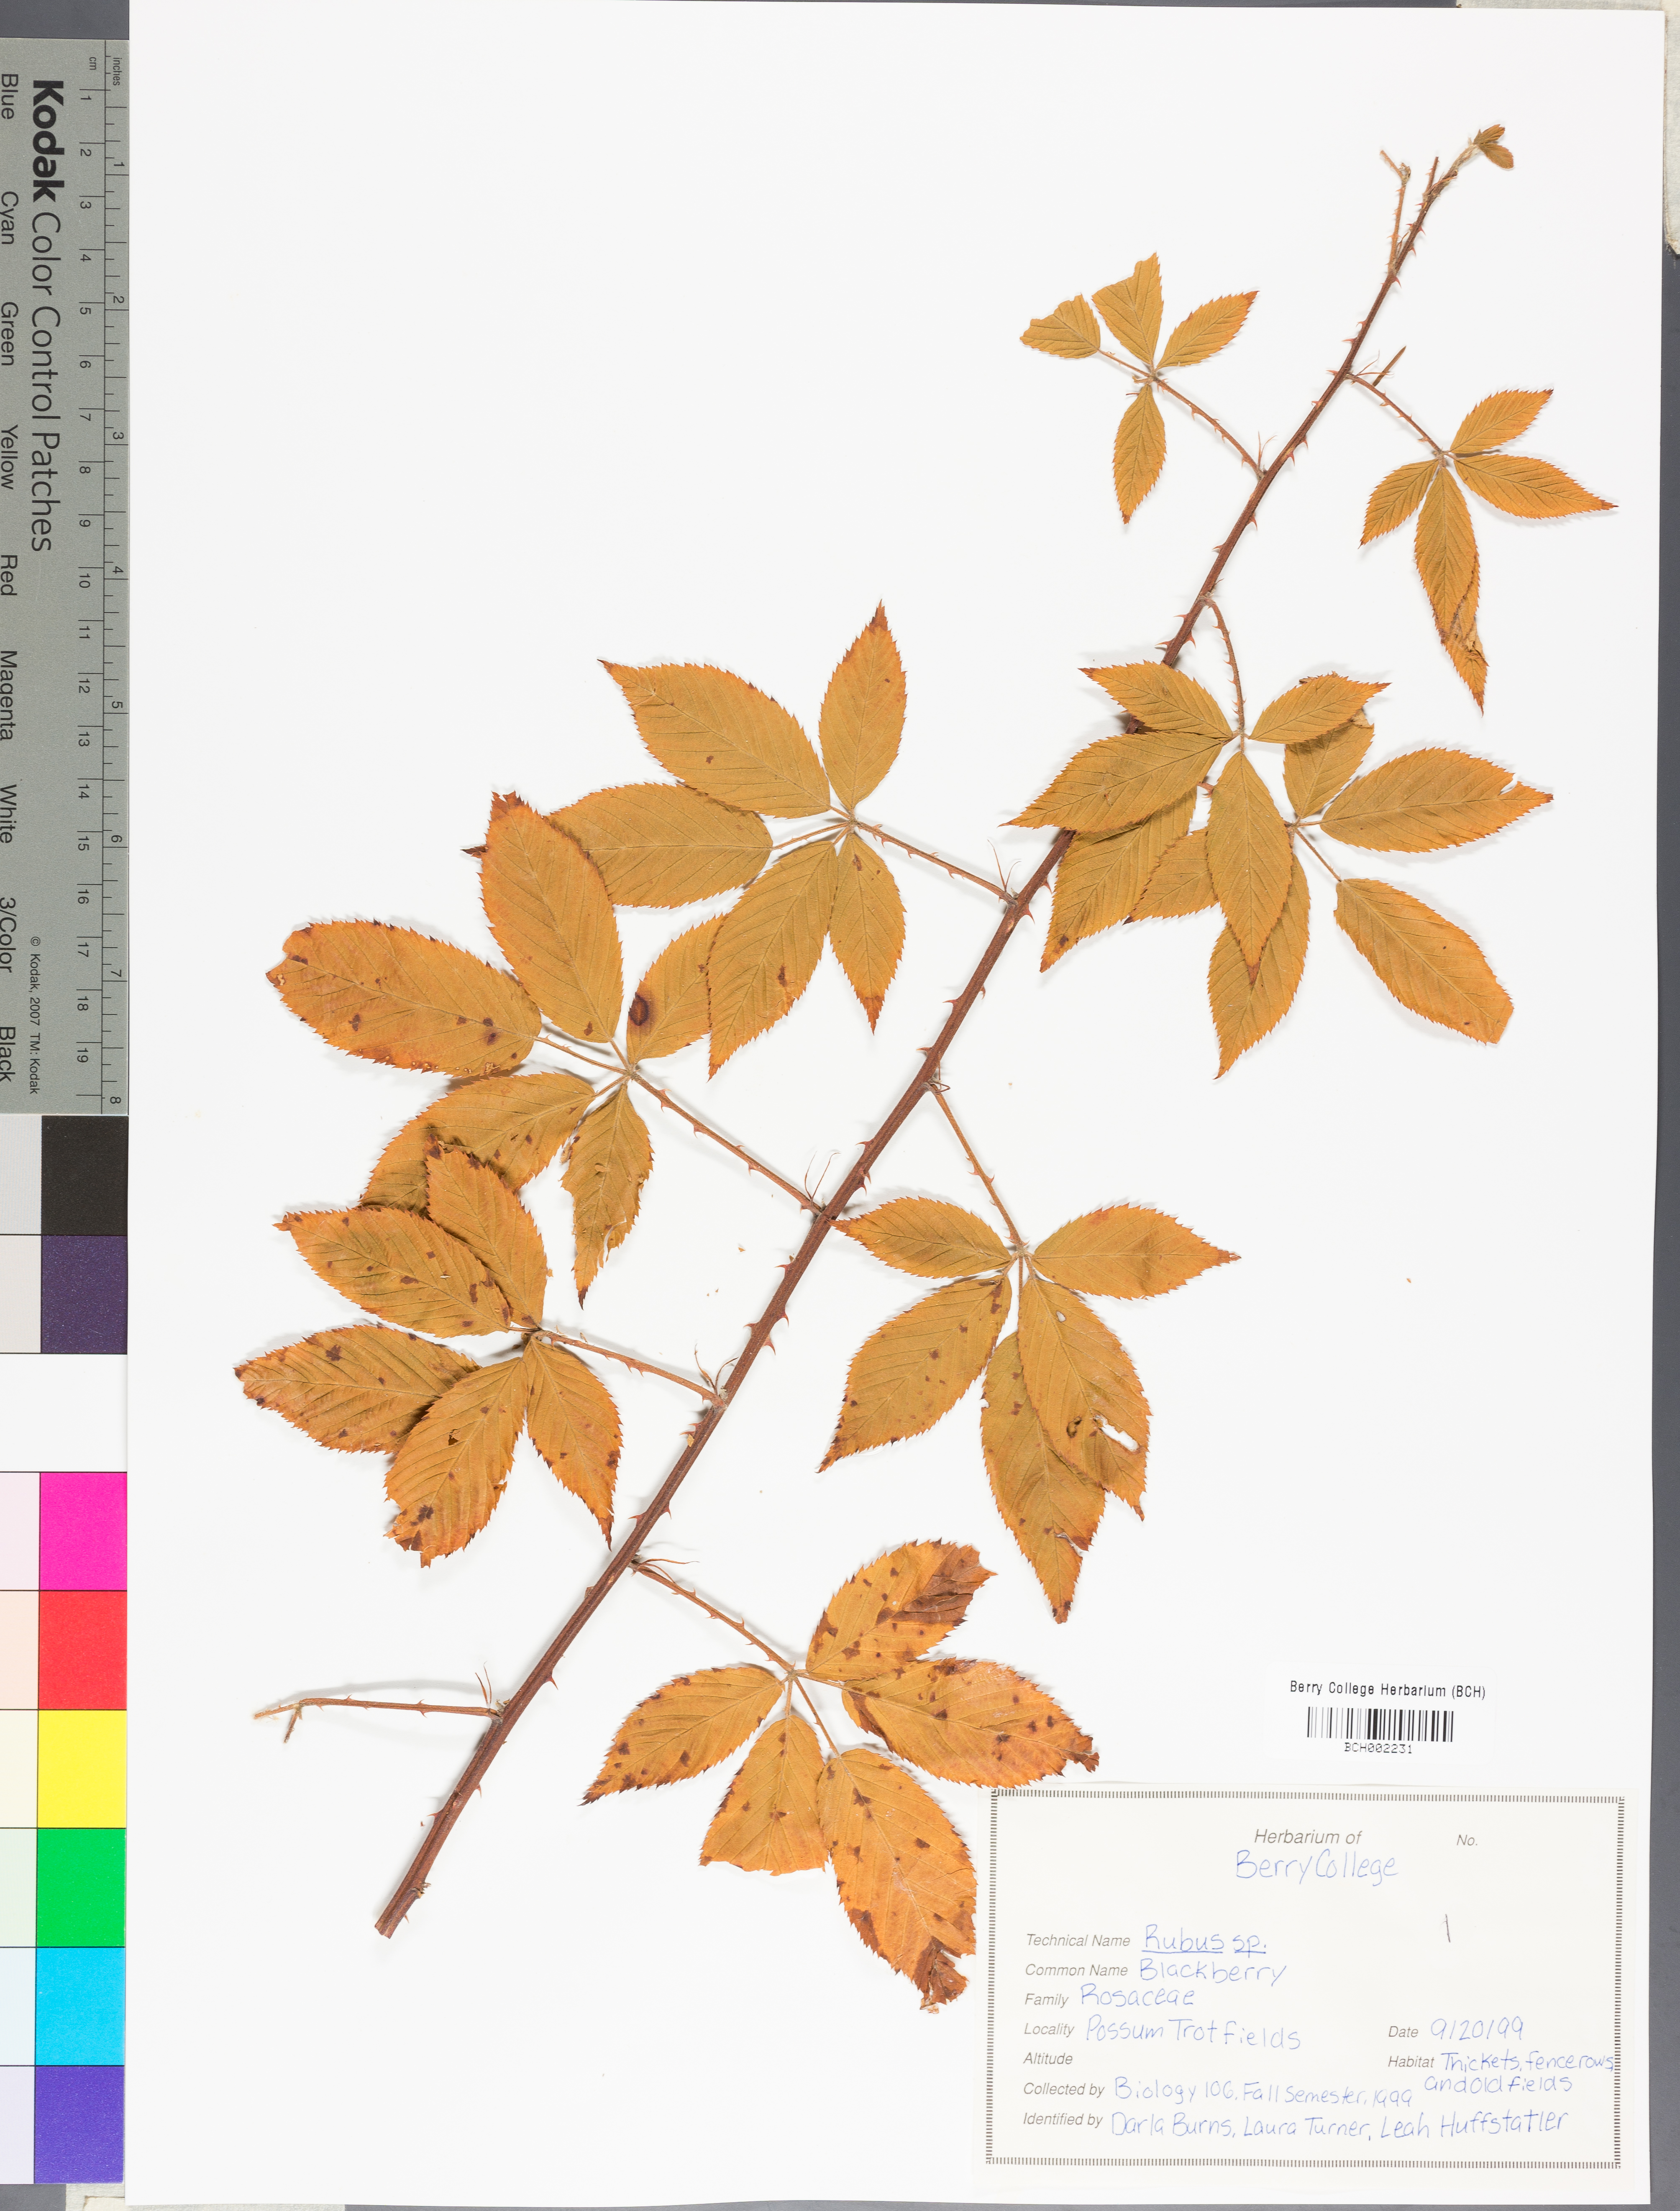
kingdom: Plantae
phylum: Tracheophyta
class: Magnoliopsida
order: Rosales
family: Rosaceae
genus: Rubus
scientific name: Rubus
